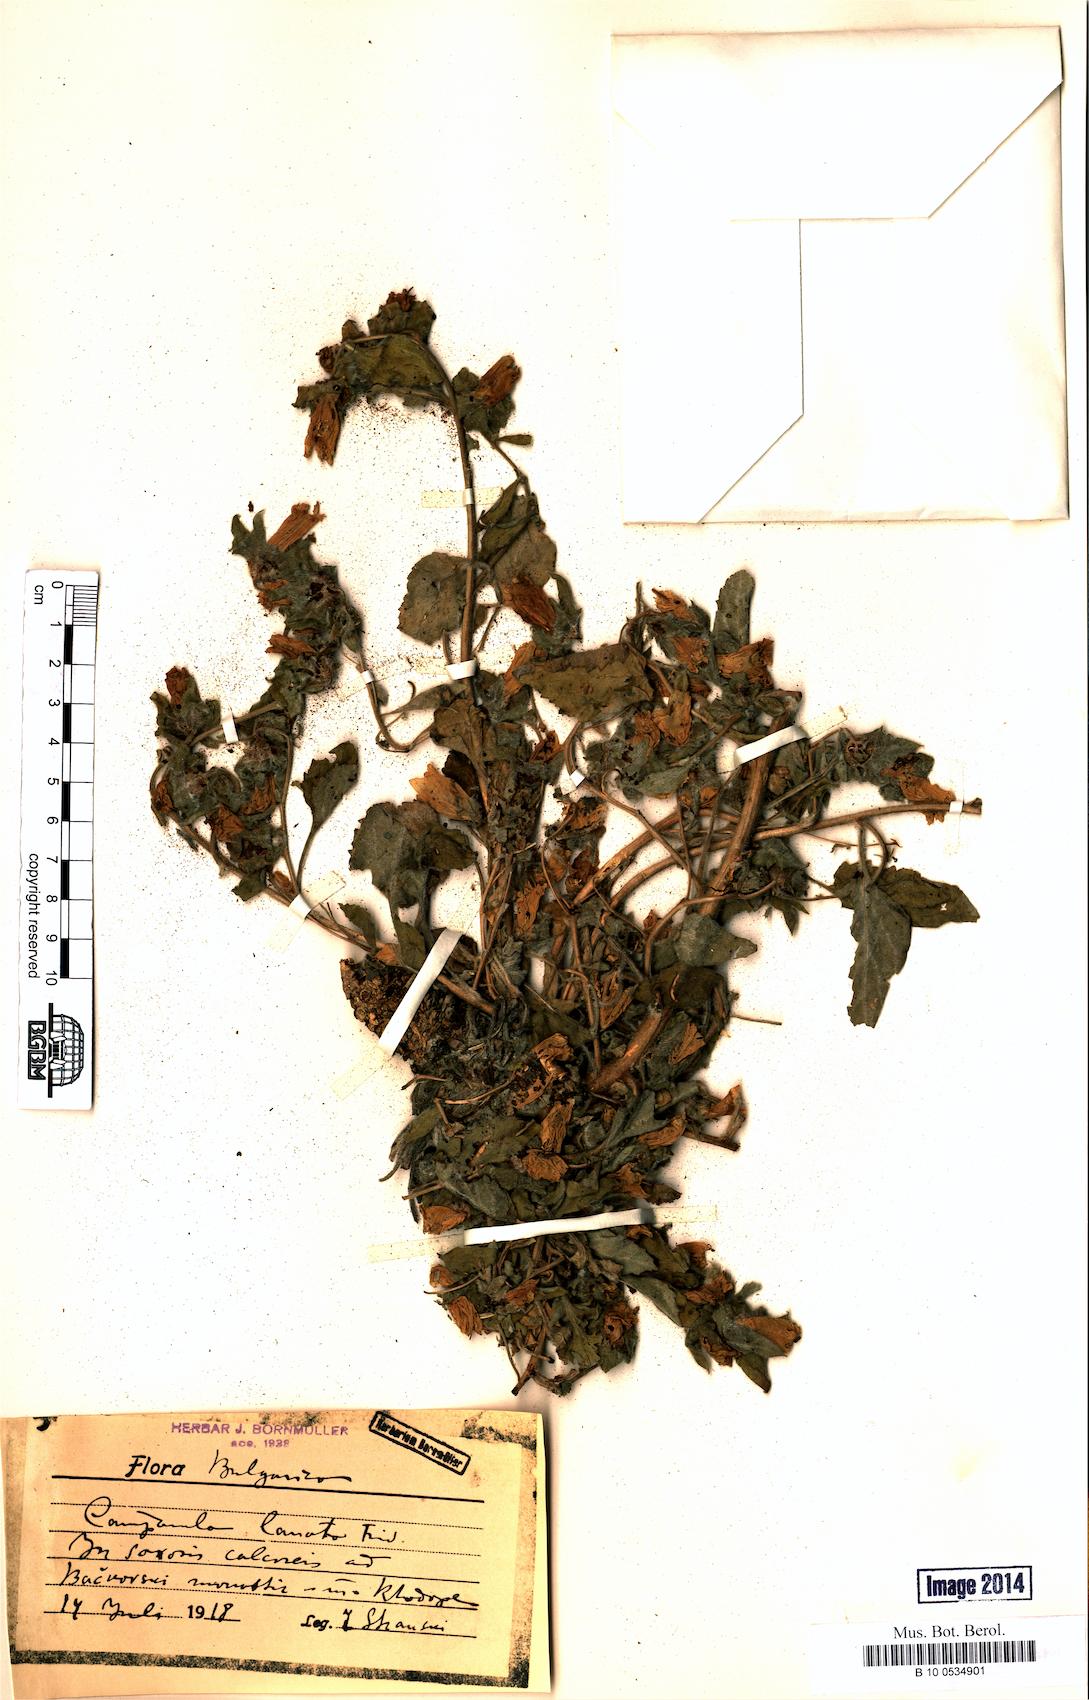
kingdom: Plantae
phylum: Tracheophyta
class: Magnoliopsida
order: Asterales
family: Campanulaceae
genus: Campanula
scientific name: Campanula lanata
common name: Woolly bellflower
